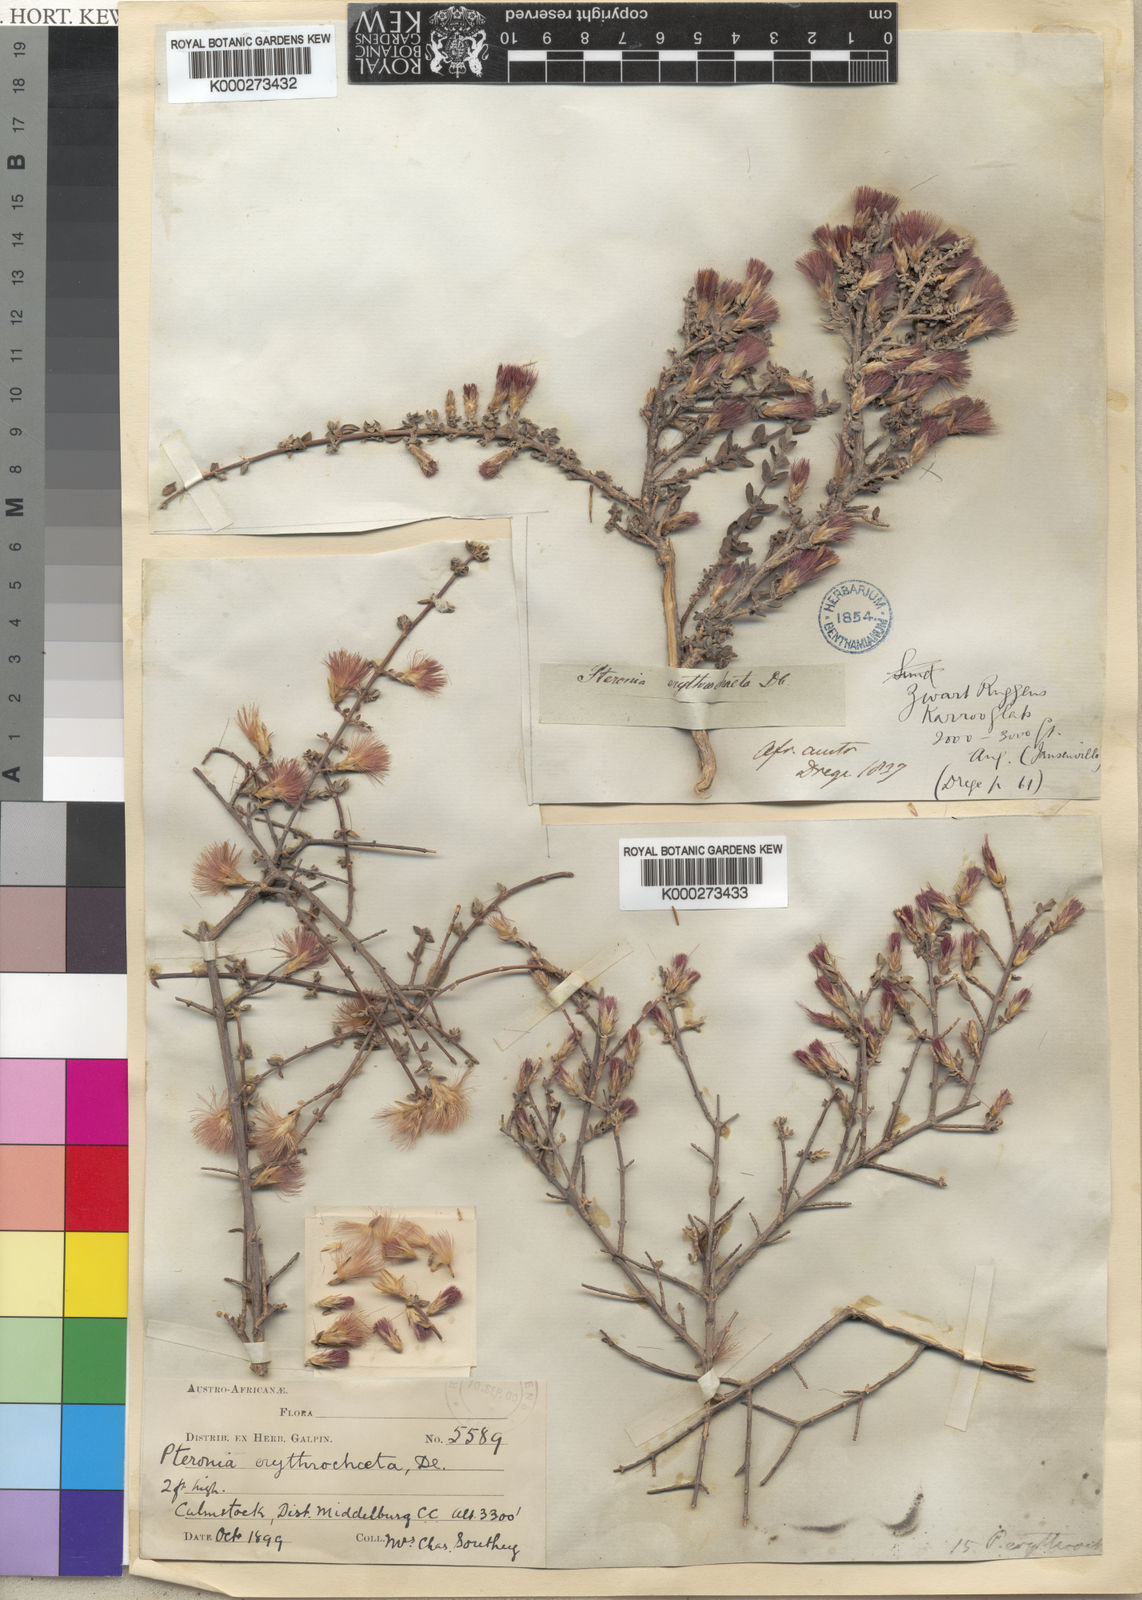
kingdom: Plantae
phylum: Tracheophyta
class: Magnoliopsida
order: Asterales
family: Asteraceae
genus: Pteronia
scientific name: Pteronia erythrochaeta
